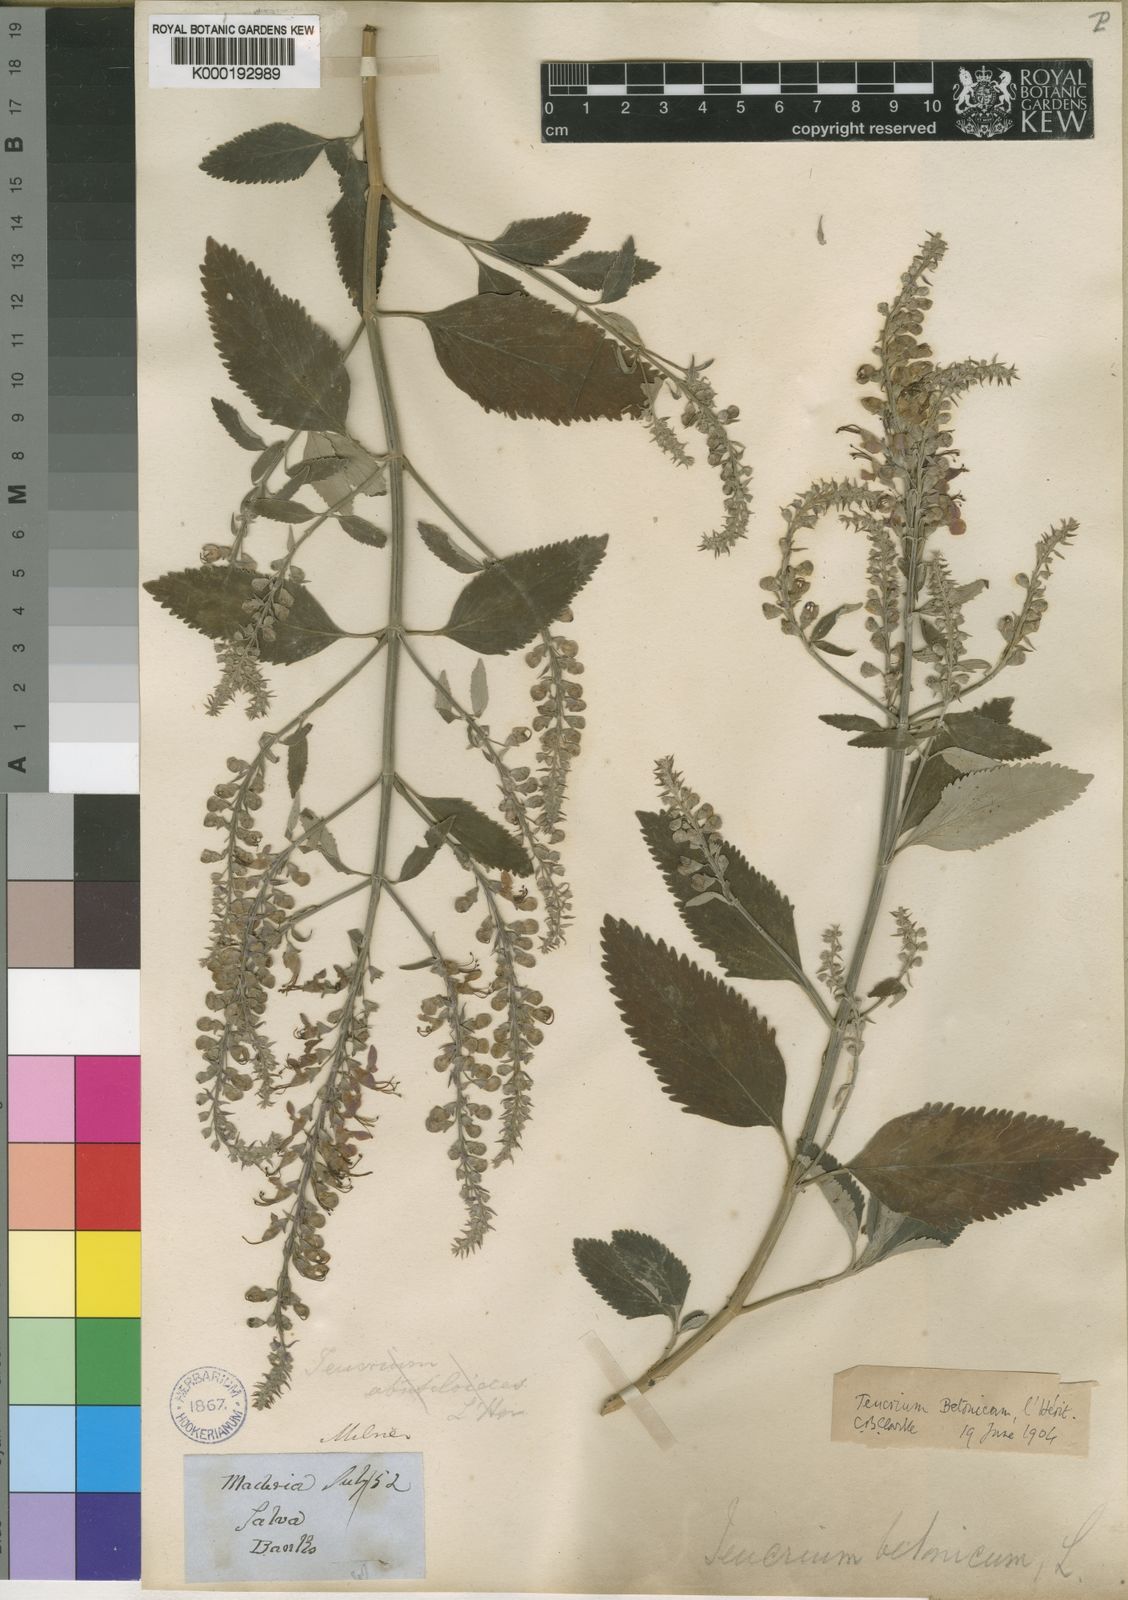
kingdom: Plantae
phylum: Tracheophyta
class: Magnoliopsida
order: Lamiales
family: Lamiaceae
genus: Teucrium
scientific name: Teucrium
